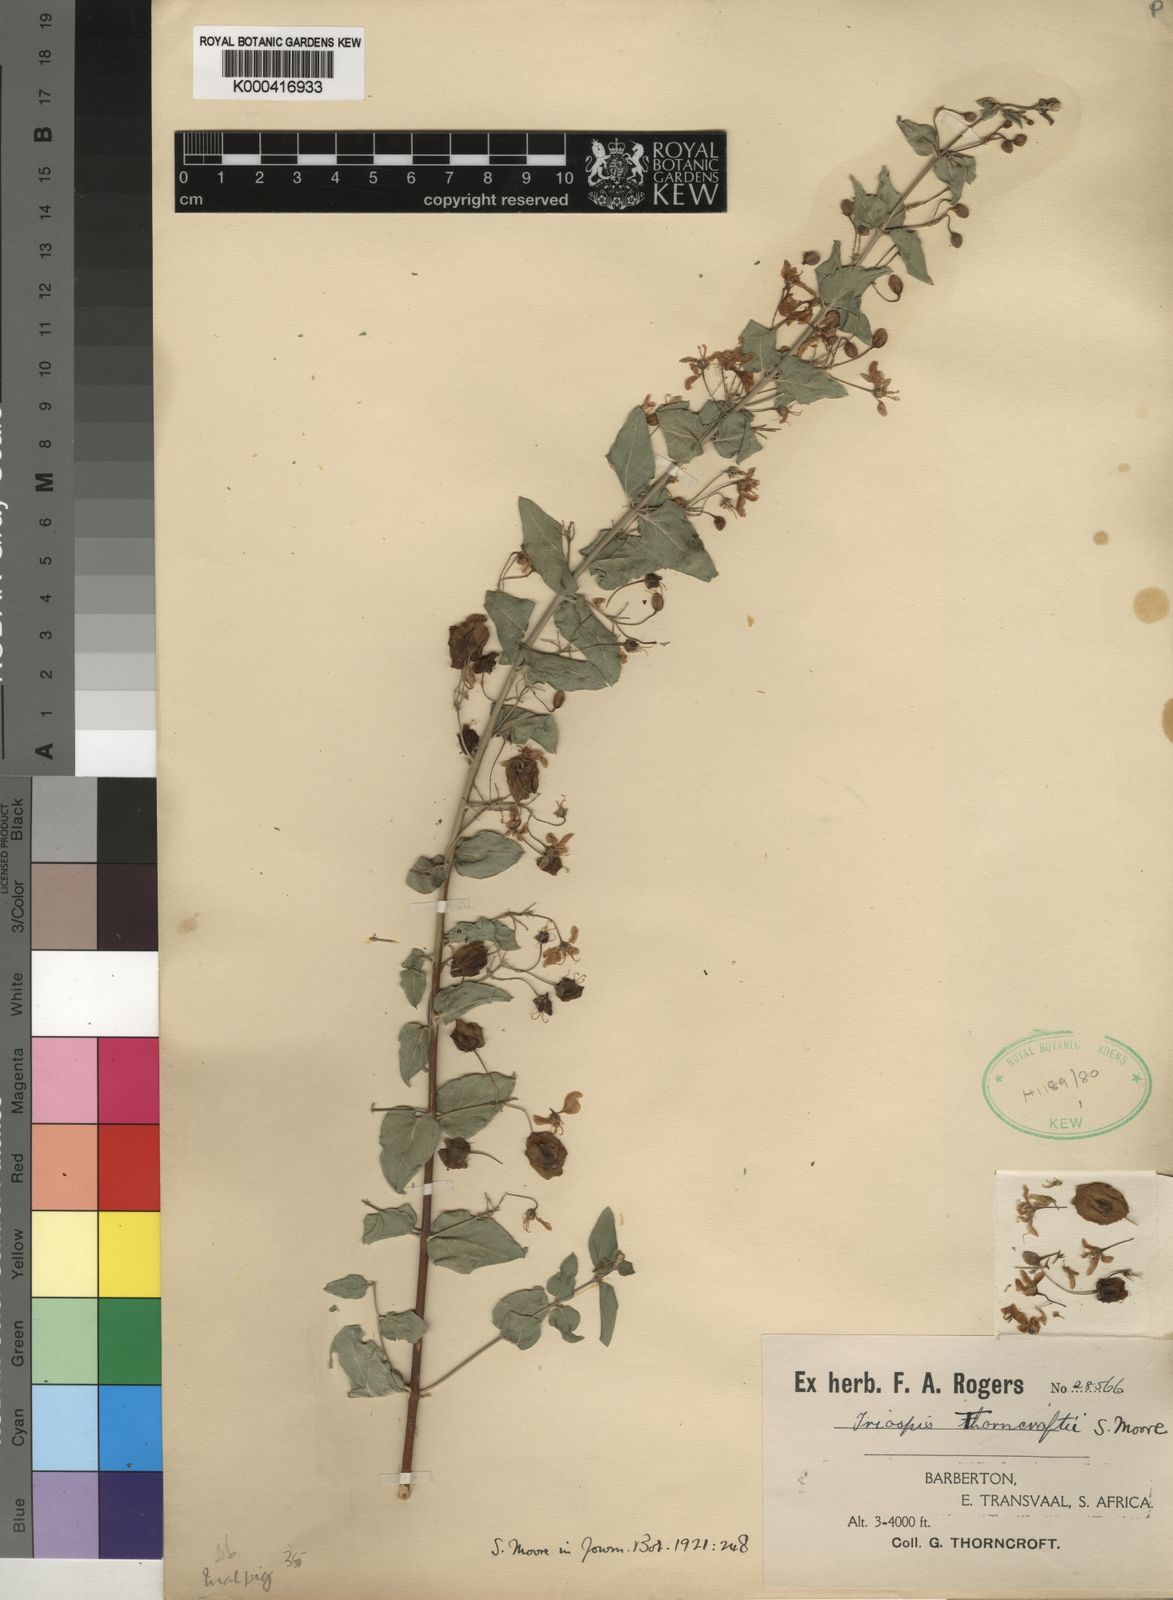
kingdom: Plantae
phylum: Tracheophyta
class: Magnoliopsida
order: Malpighiales
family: Malpighiaceae
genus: Triaspis
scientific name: Triaspis hypericoides
